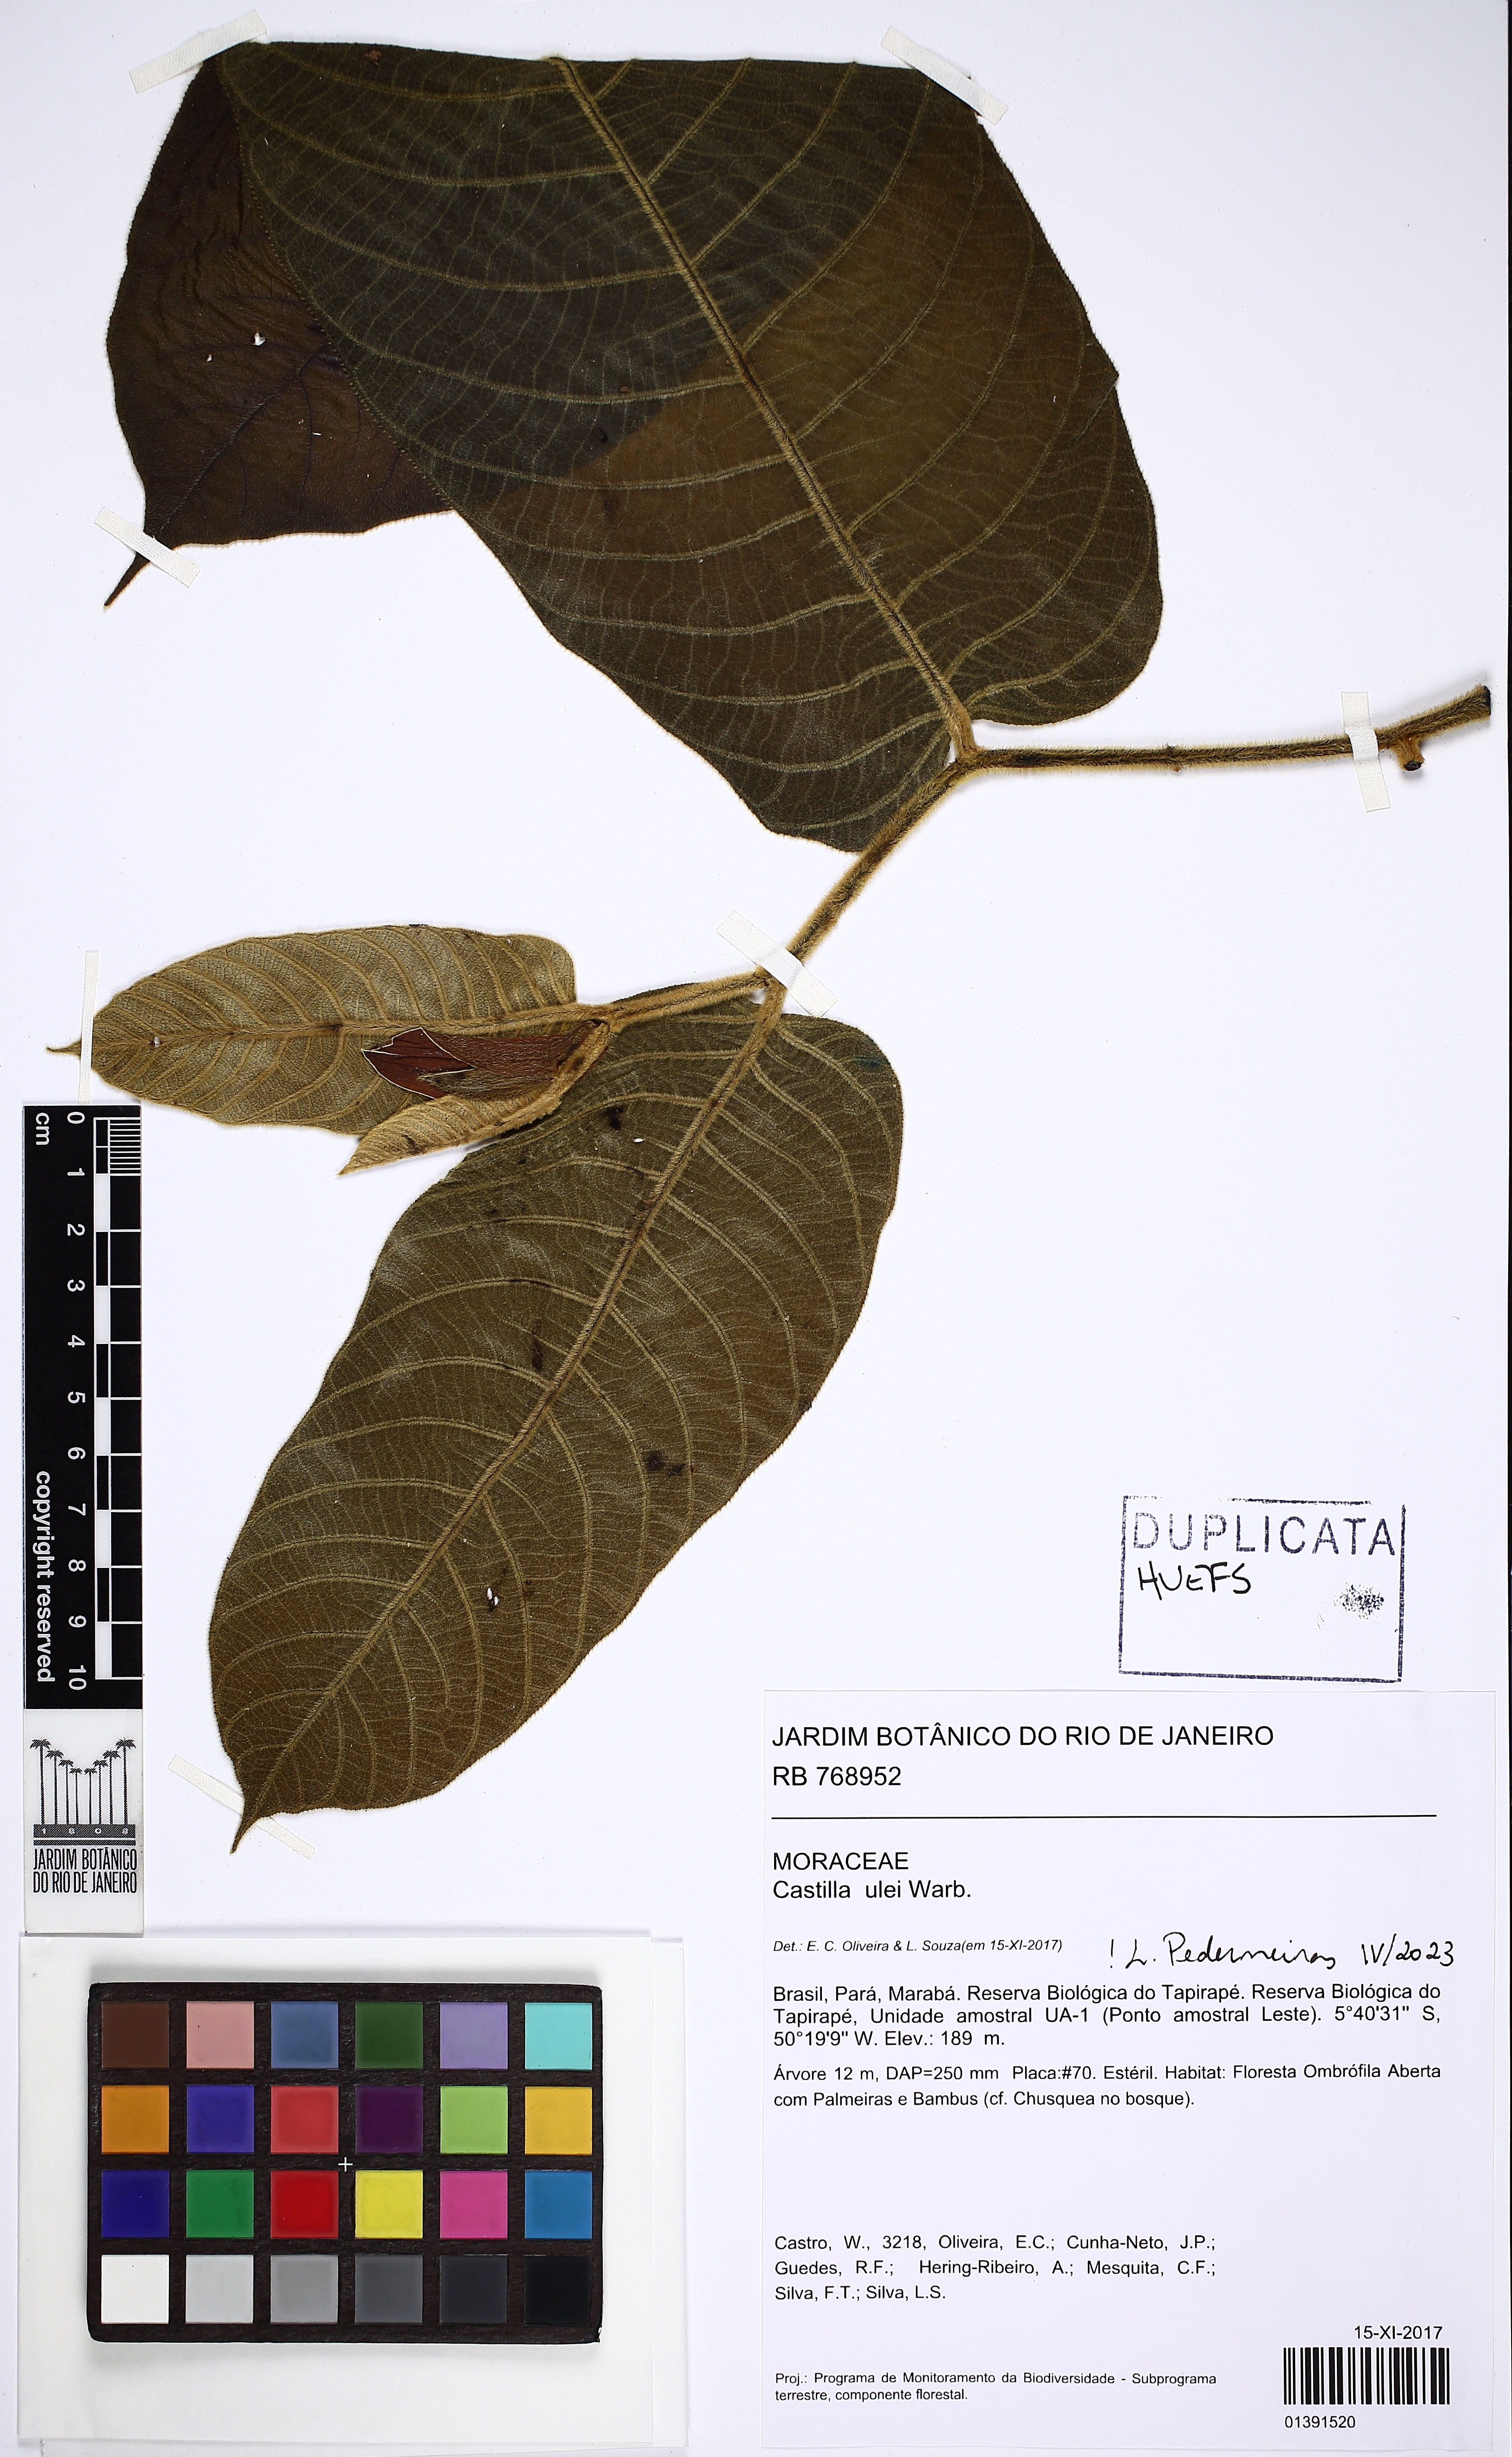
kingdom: Plantae
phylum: Tracheophyta
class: Magnoliopsida
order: Rosales
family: Moraceae
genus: Castilla
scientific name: Castilla ulei
